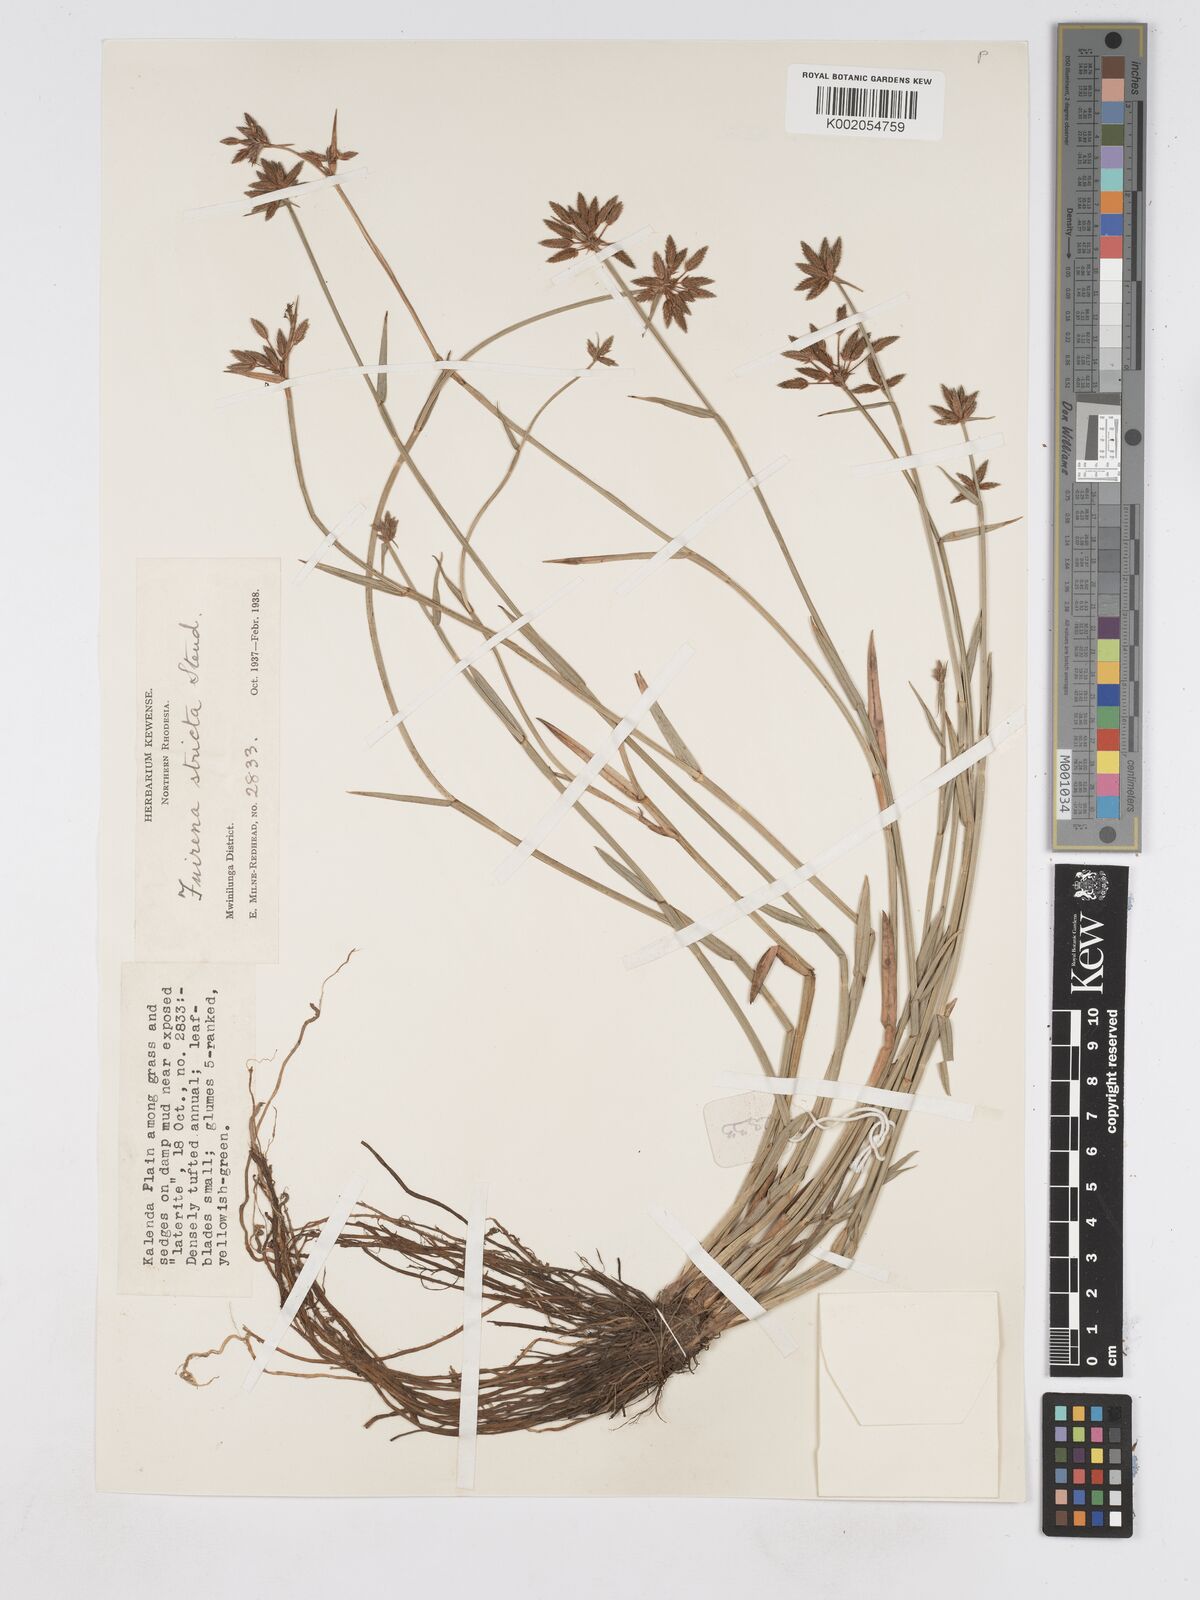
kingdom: Plantae
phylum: Tracheophyta
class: Liliopsida
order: Poales
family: Cyperaceae
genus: Fuirena
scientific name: Fuirena stricta
